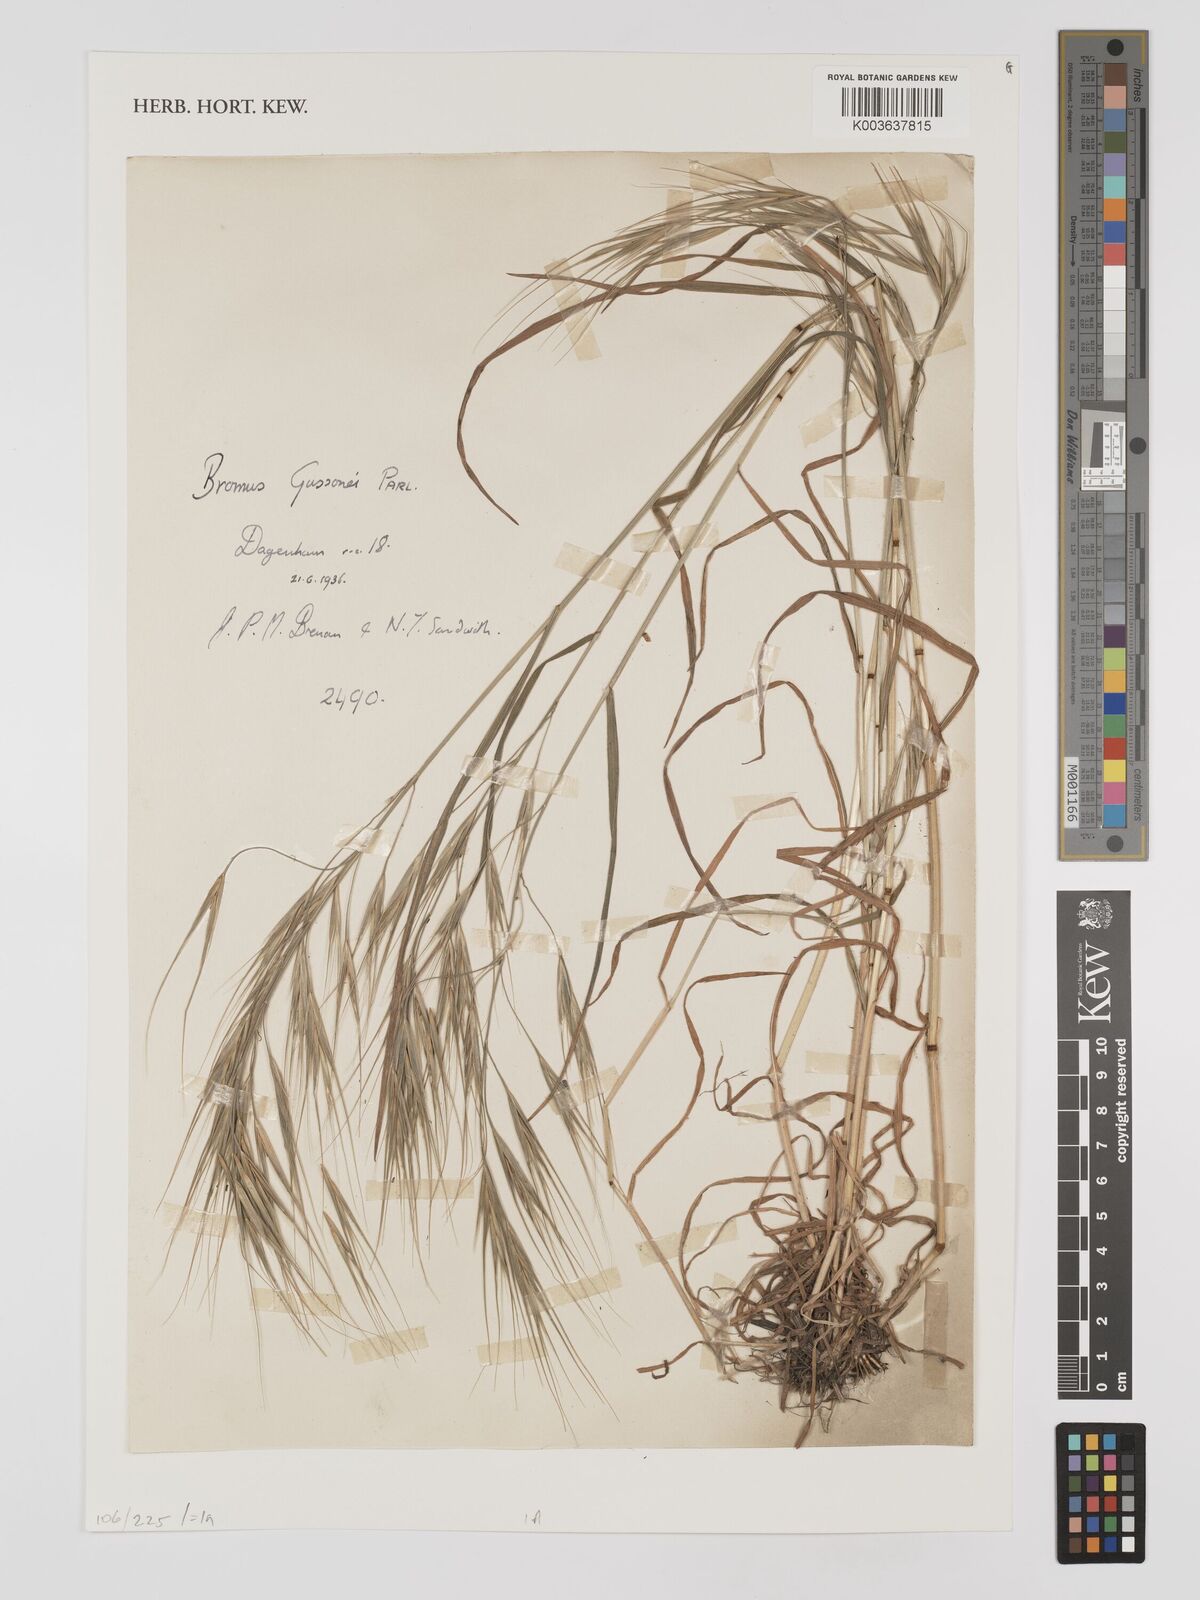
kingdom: Plantae
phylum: Tracheophyta
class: Liliopsida
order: Poales
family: Poaceae
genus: Bromus
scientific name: Bromus
